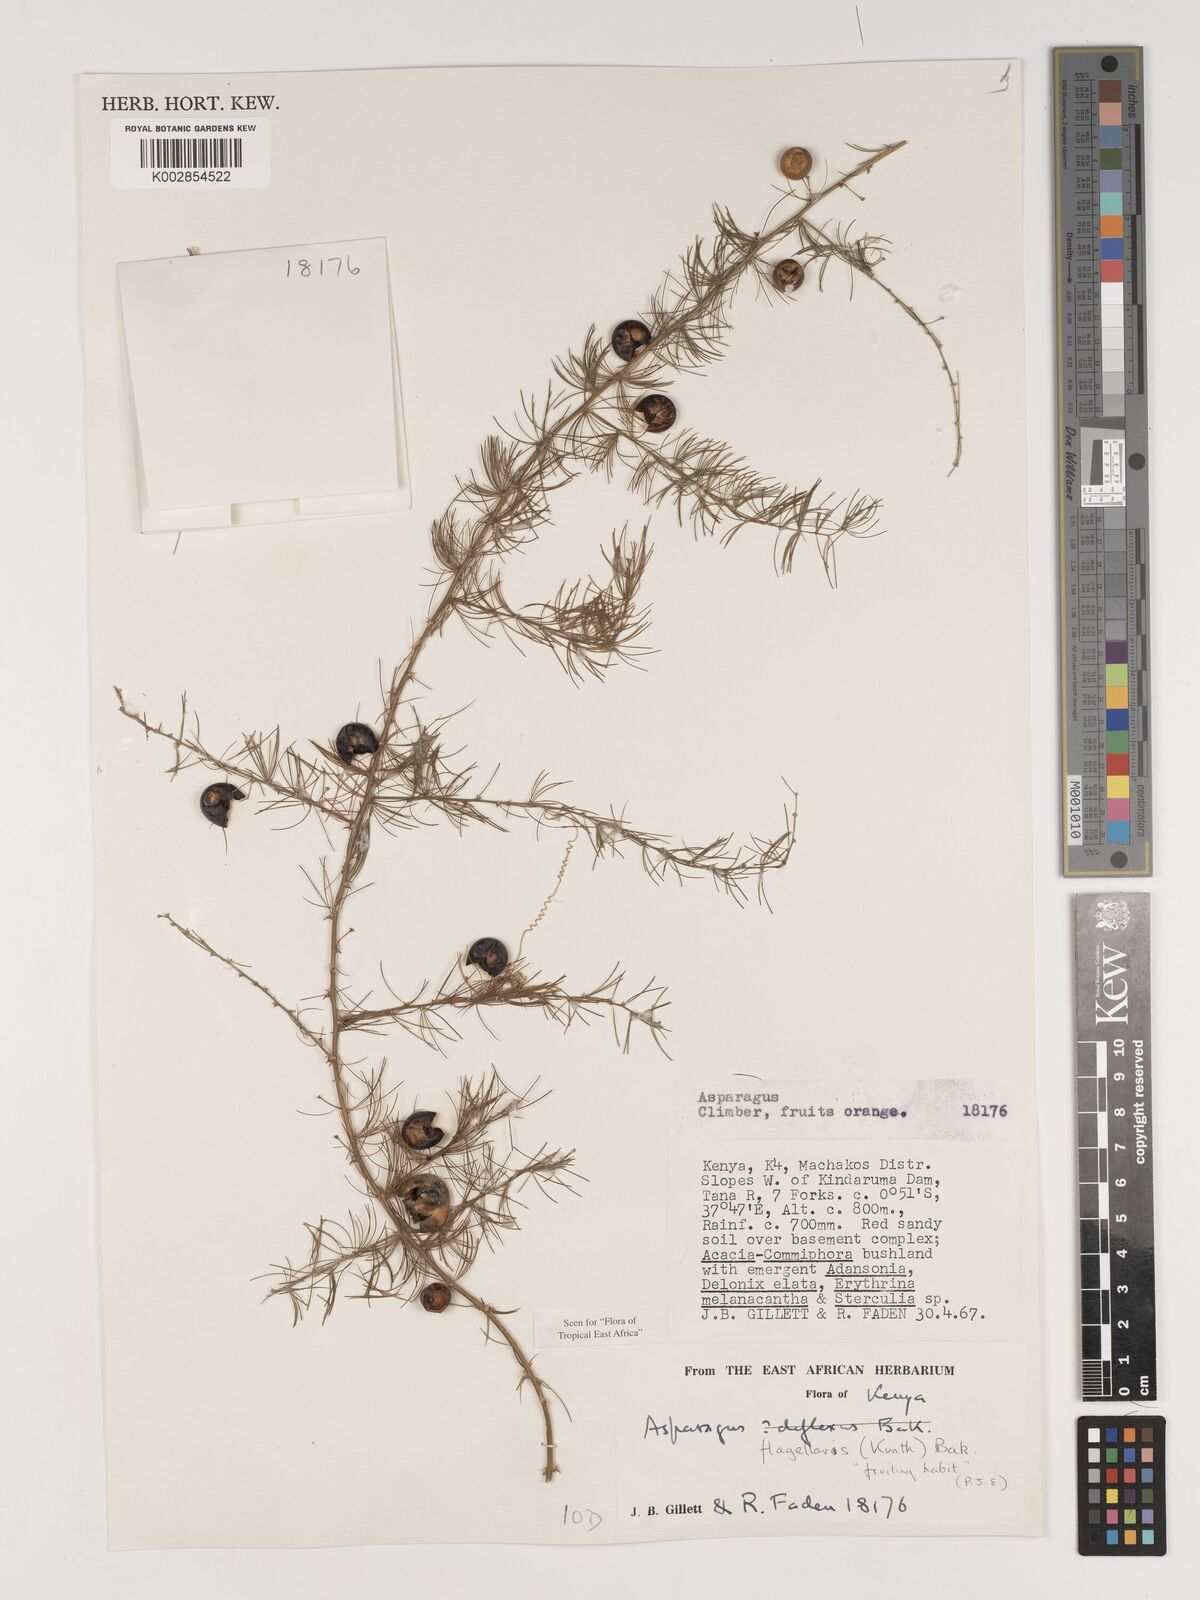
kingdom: Plantae
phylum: Tracheophyta
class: Liliopsida
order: Asparagales
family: Asparagaceae
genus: Asparagus
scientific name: Asparagus flagellaris
